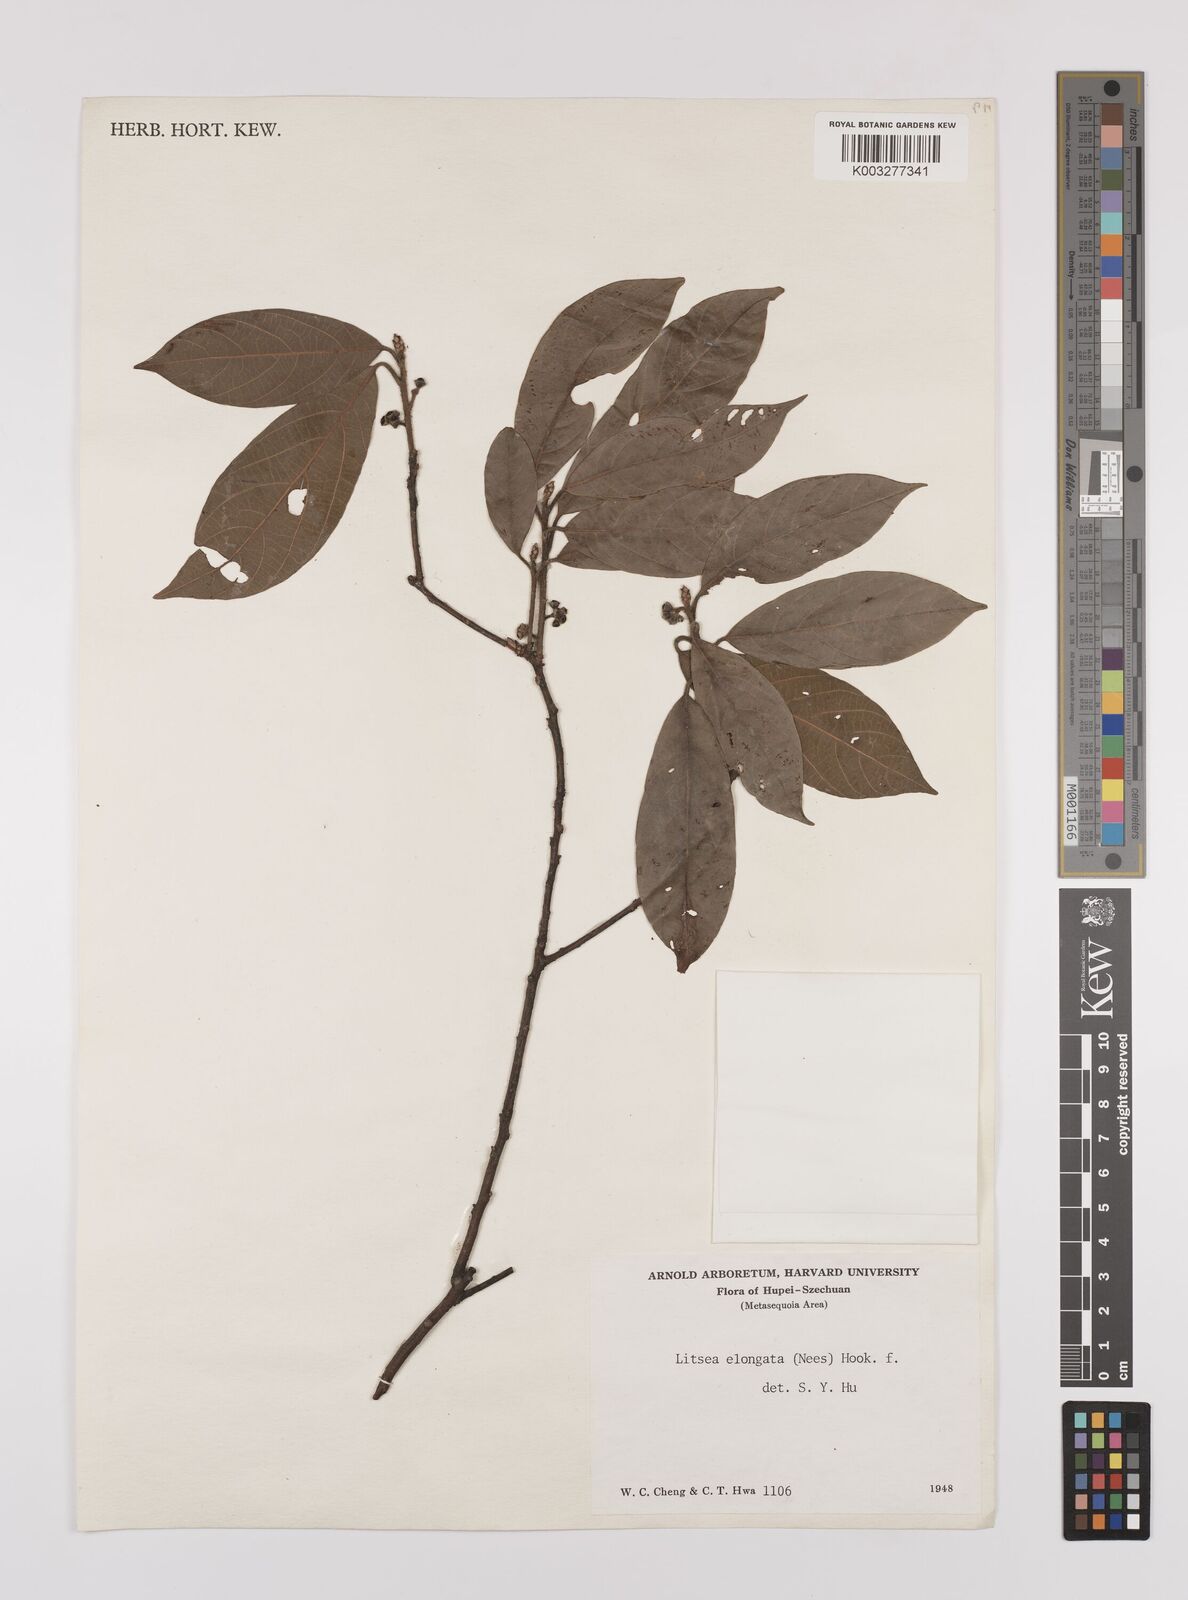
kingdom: Plantae
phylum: Tracheophyta
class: Magnoliopsida
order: Laurales
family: Lauraceae
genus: Litsea
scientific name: Litsea elongata
